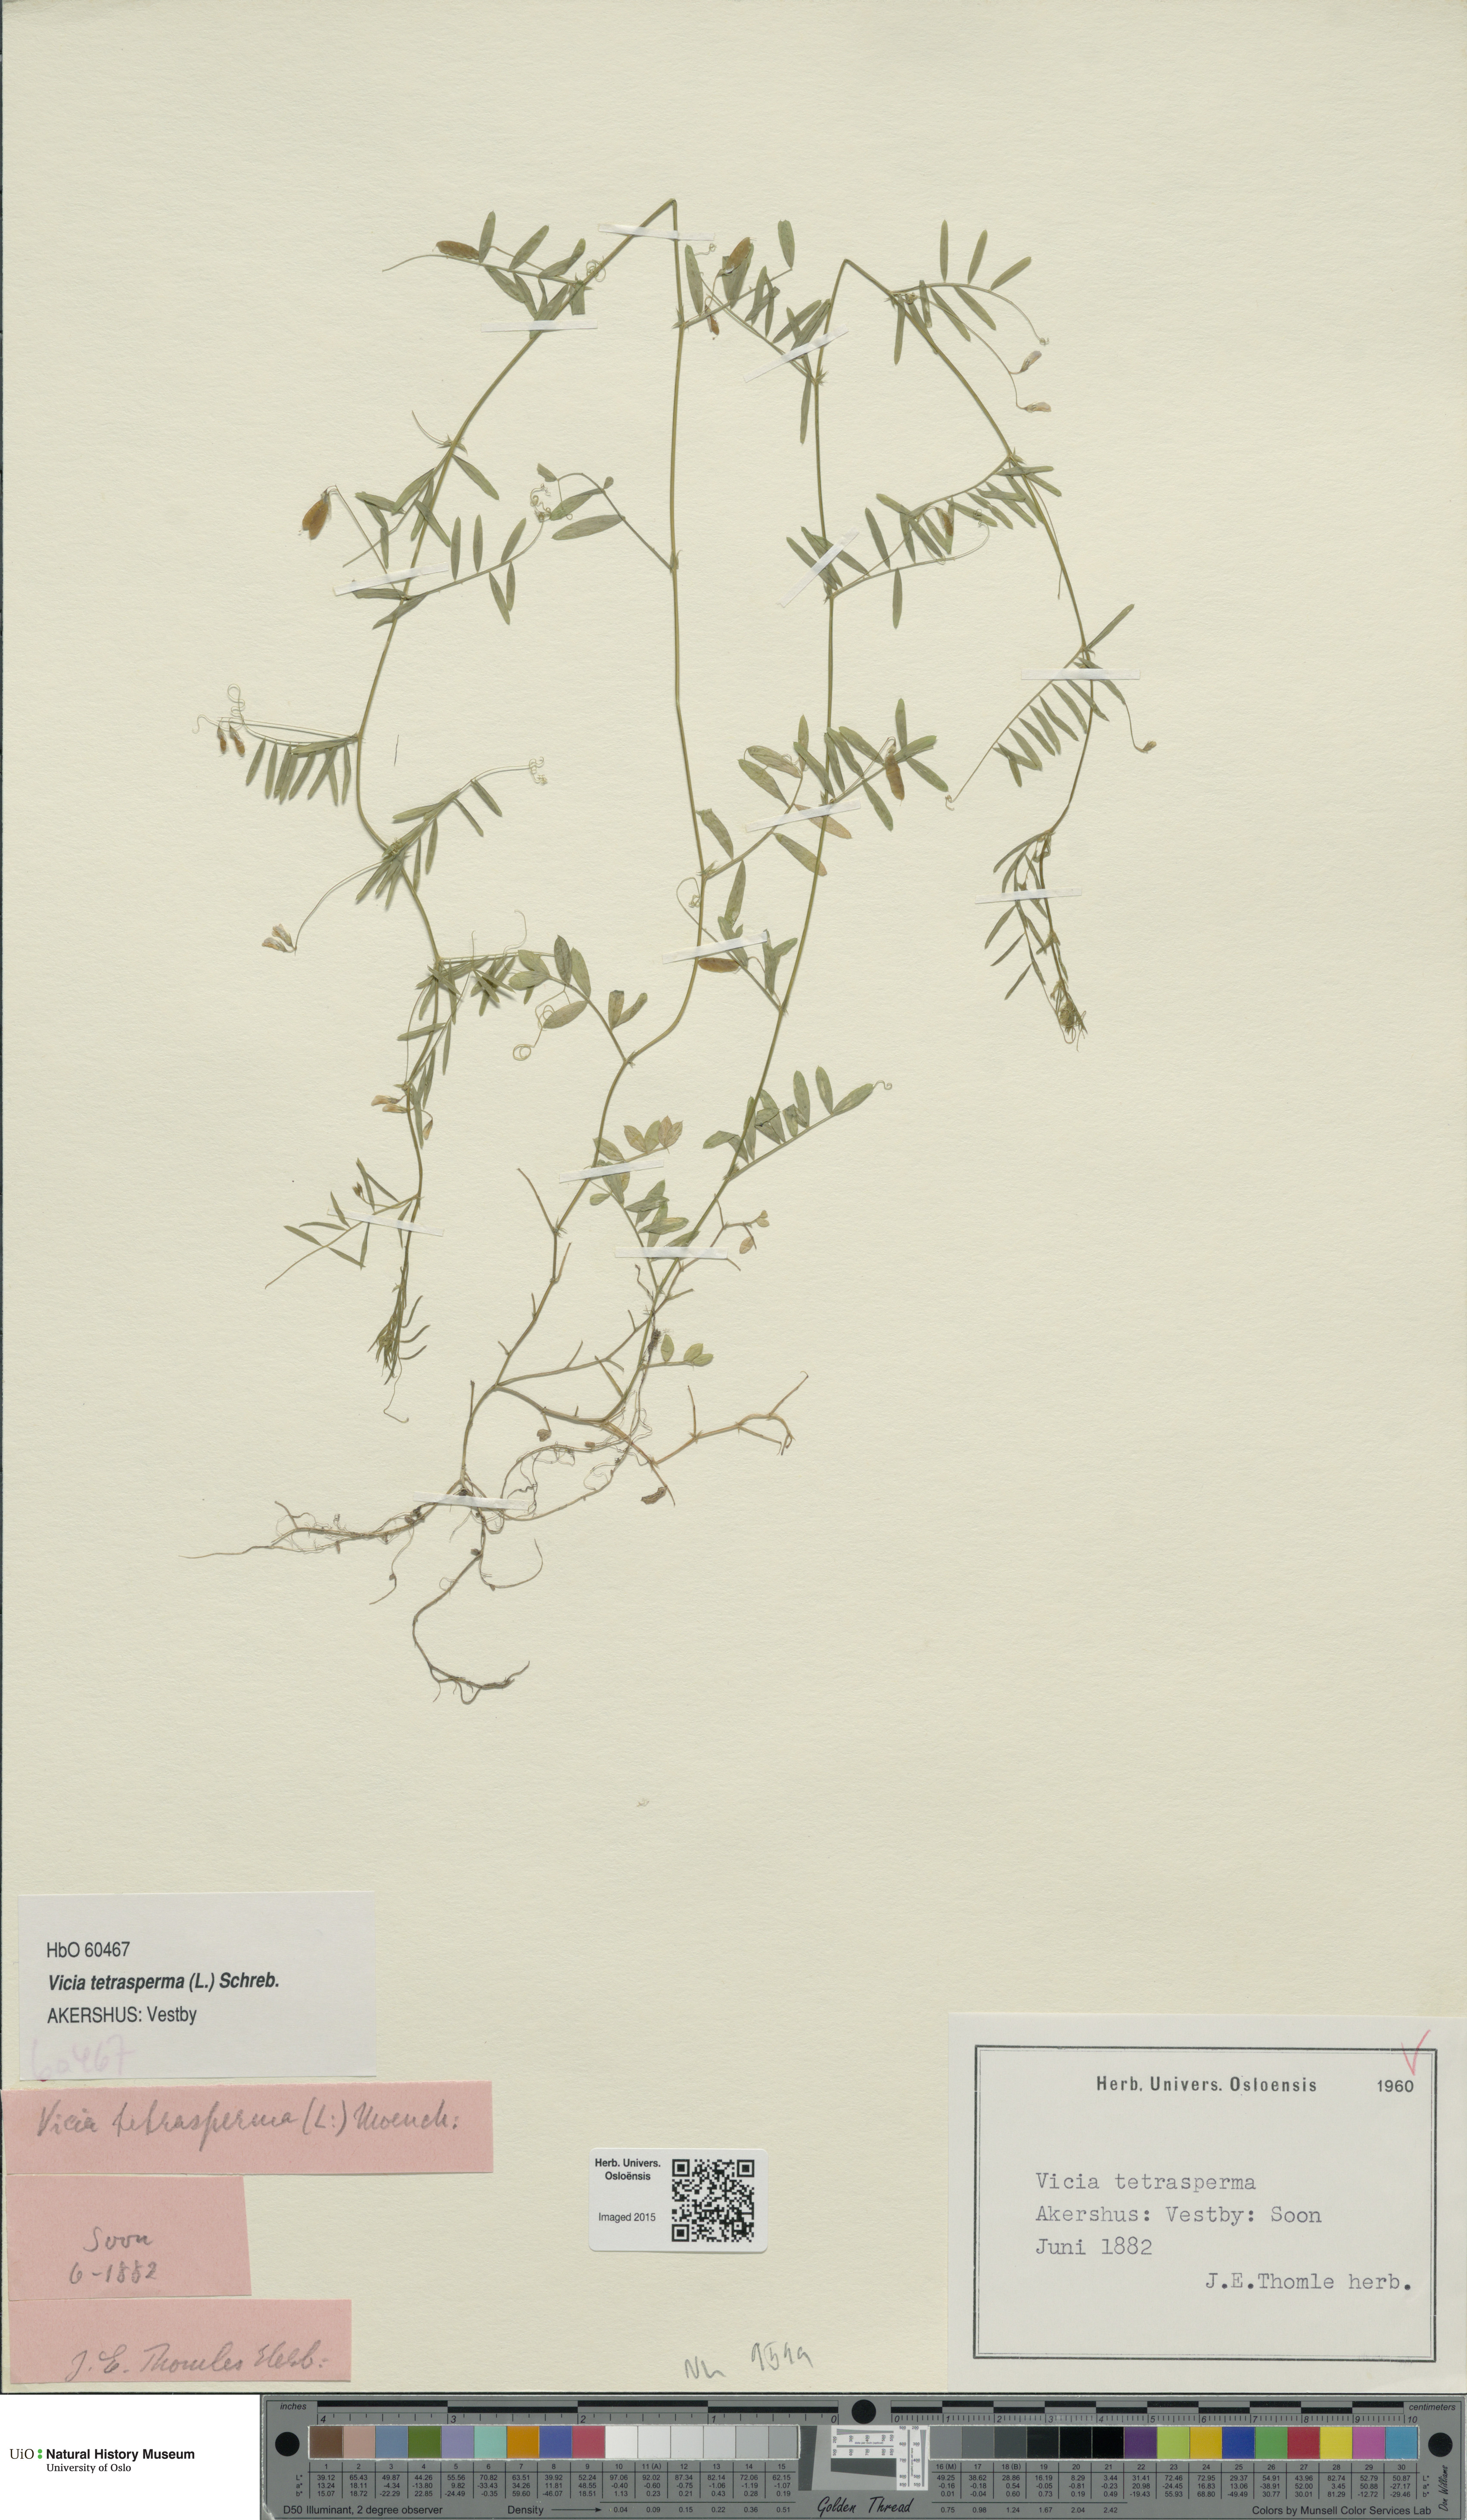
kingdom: Plantae
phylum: Tracheophyta
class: Magnoliopsida
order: Fabales
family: Fabaceae
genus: Vicia
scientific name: Vicia tetrasperma
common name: Smooth tare
